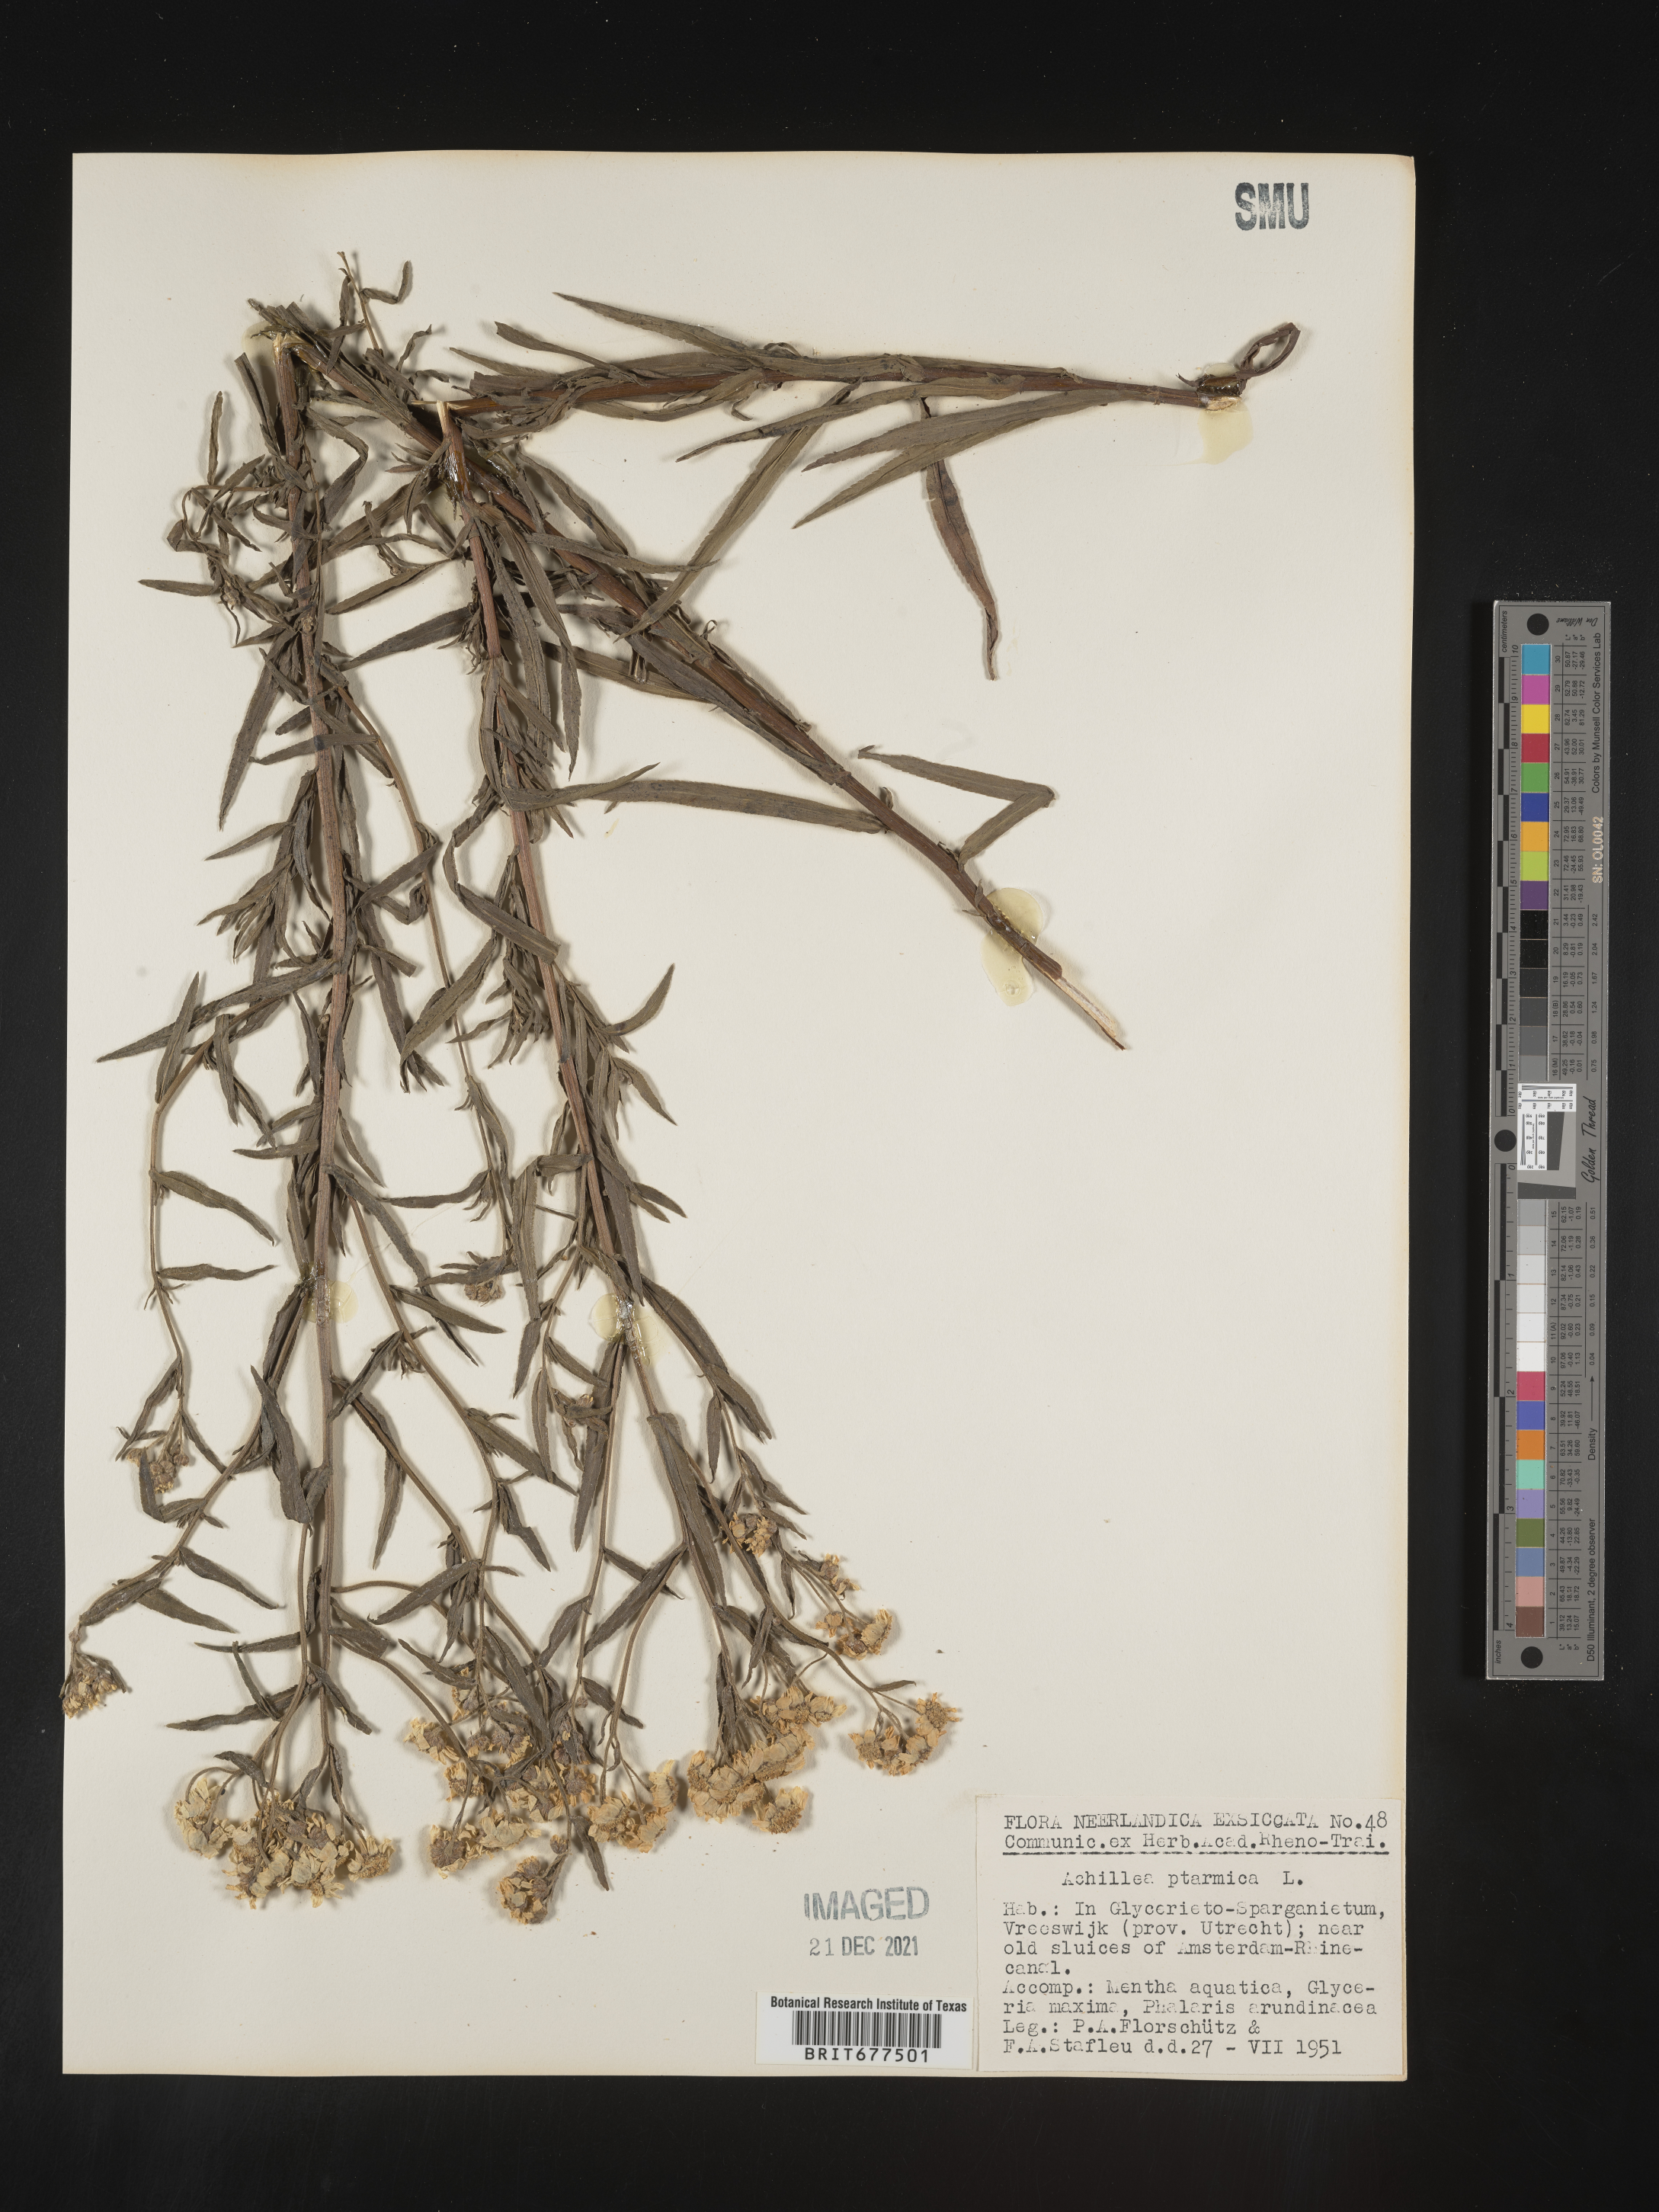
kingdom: Plantae
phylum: Tracheophyta
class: Magnoliopsida
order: Asterales
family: Asteraceae
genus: Achillea
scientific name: Achillea ptarmica
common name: Sneezeweed
